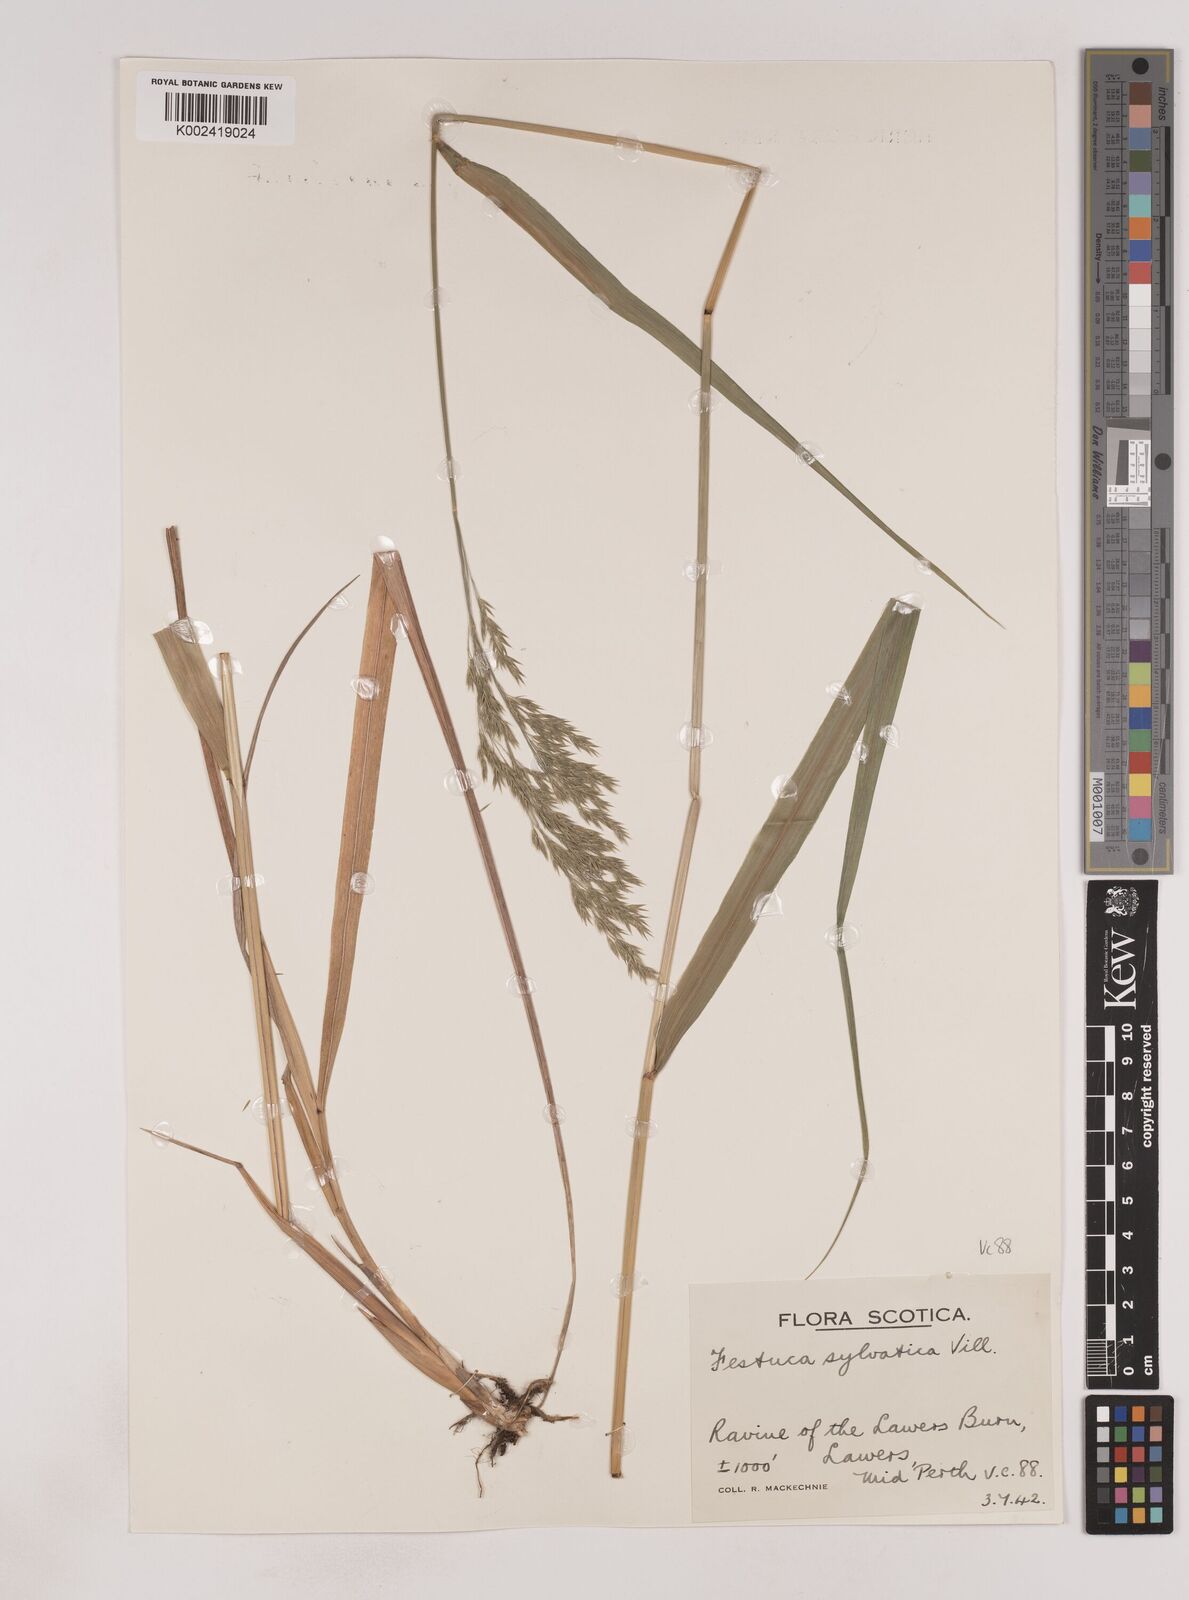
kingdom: Plantae
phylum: Tracheophyta
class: Liliopsida
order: Poales
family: Poaceae
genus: Festuca
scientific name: Festuca drymeja
